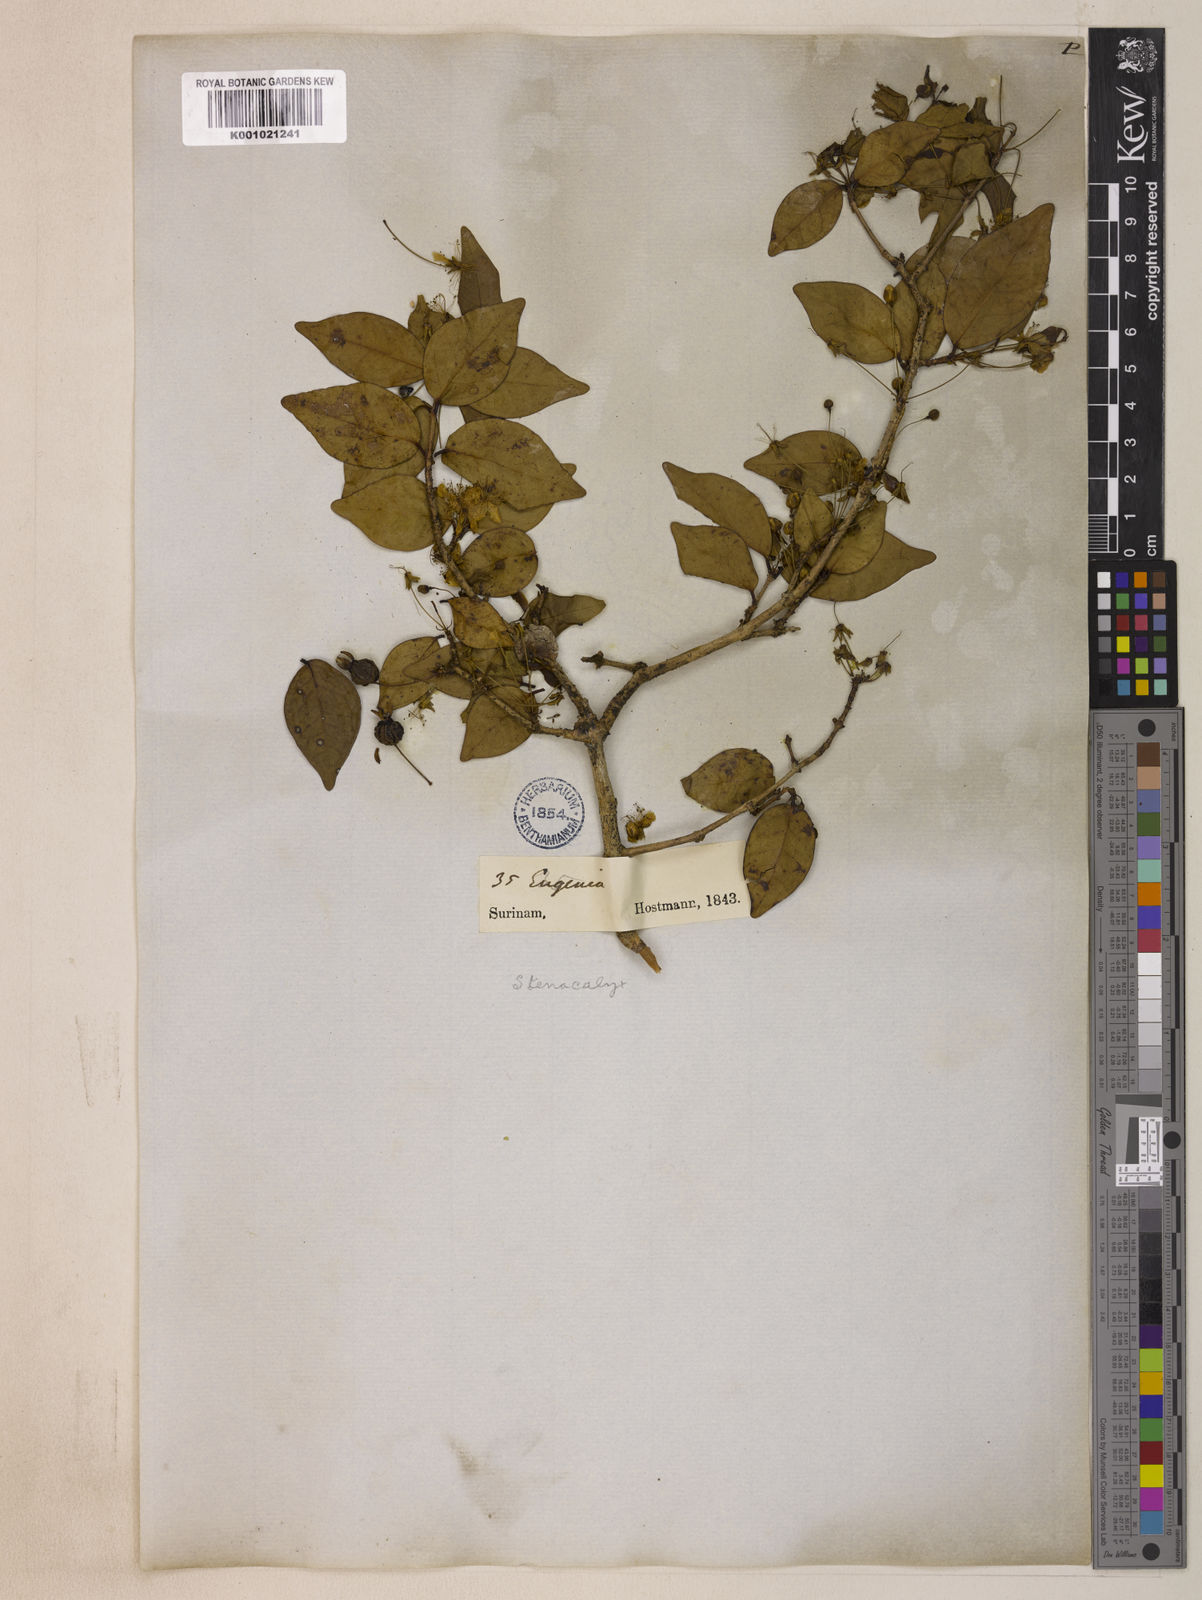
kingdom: Plantae
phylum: Tracheophyta
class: Magnoliopsida
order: Myrtales
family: Myrtaceae
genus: Eugenia
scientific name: Eugenia uniflora
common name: Surinam cherry
